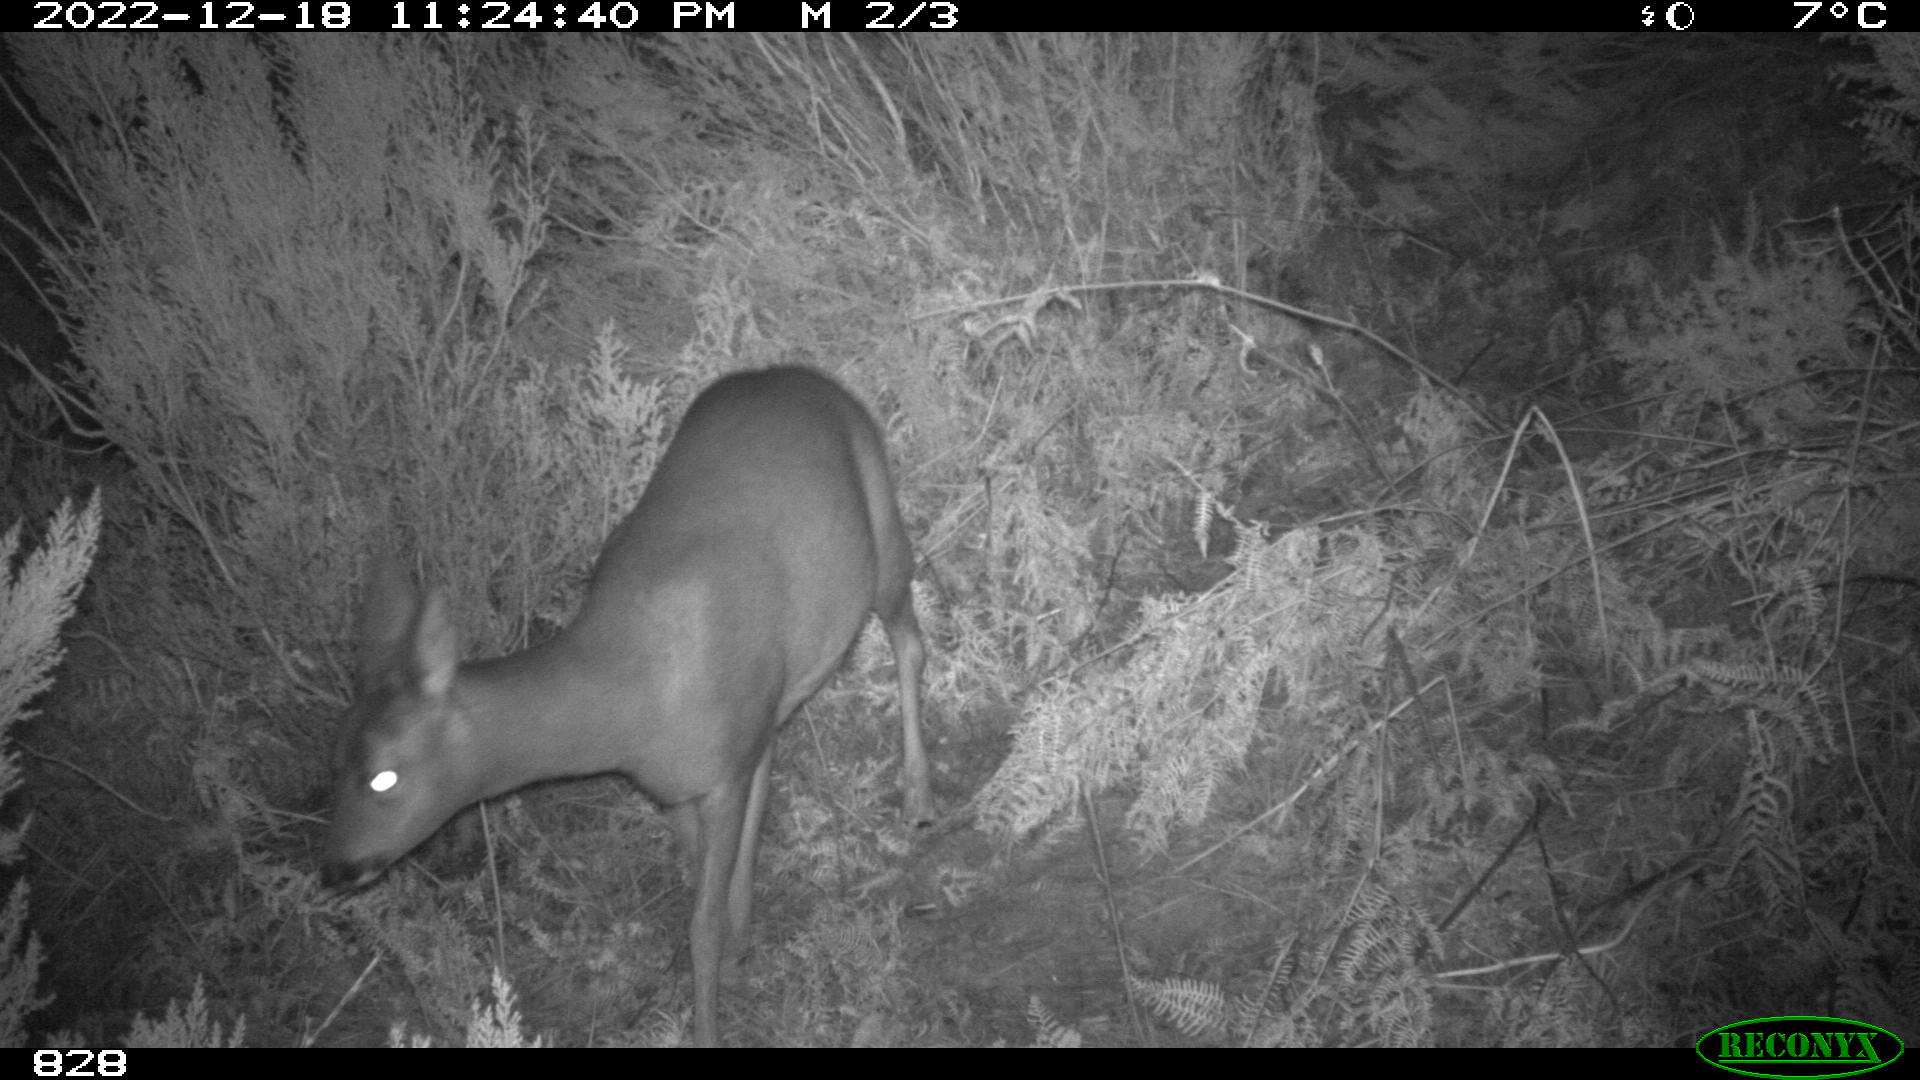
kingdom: Animalia
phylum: Chordata
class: Mammalia
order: Artiodactyla
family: Cervidae
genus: Capreolus
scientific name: Capreolus capreolus
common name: Western roe deer
